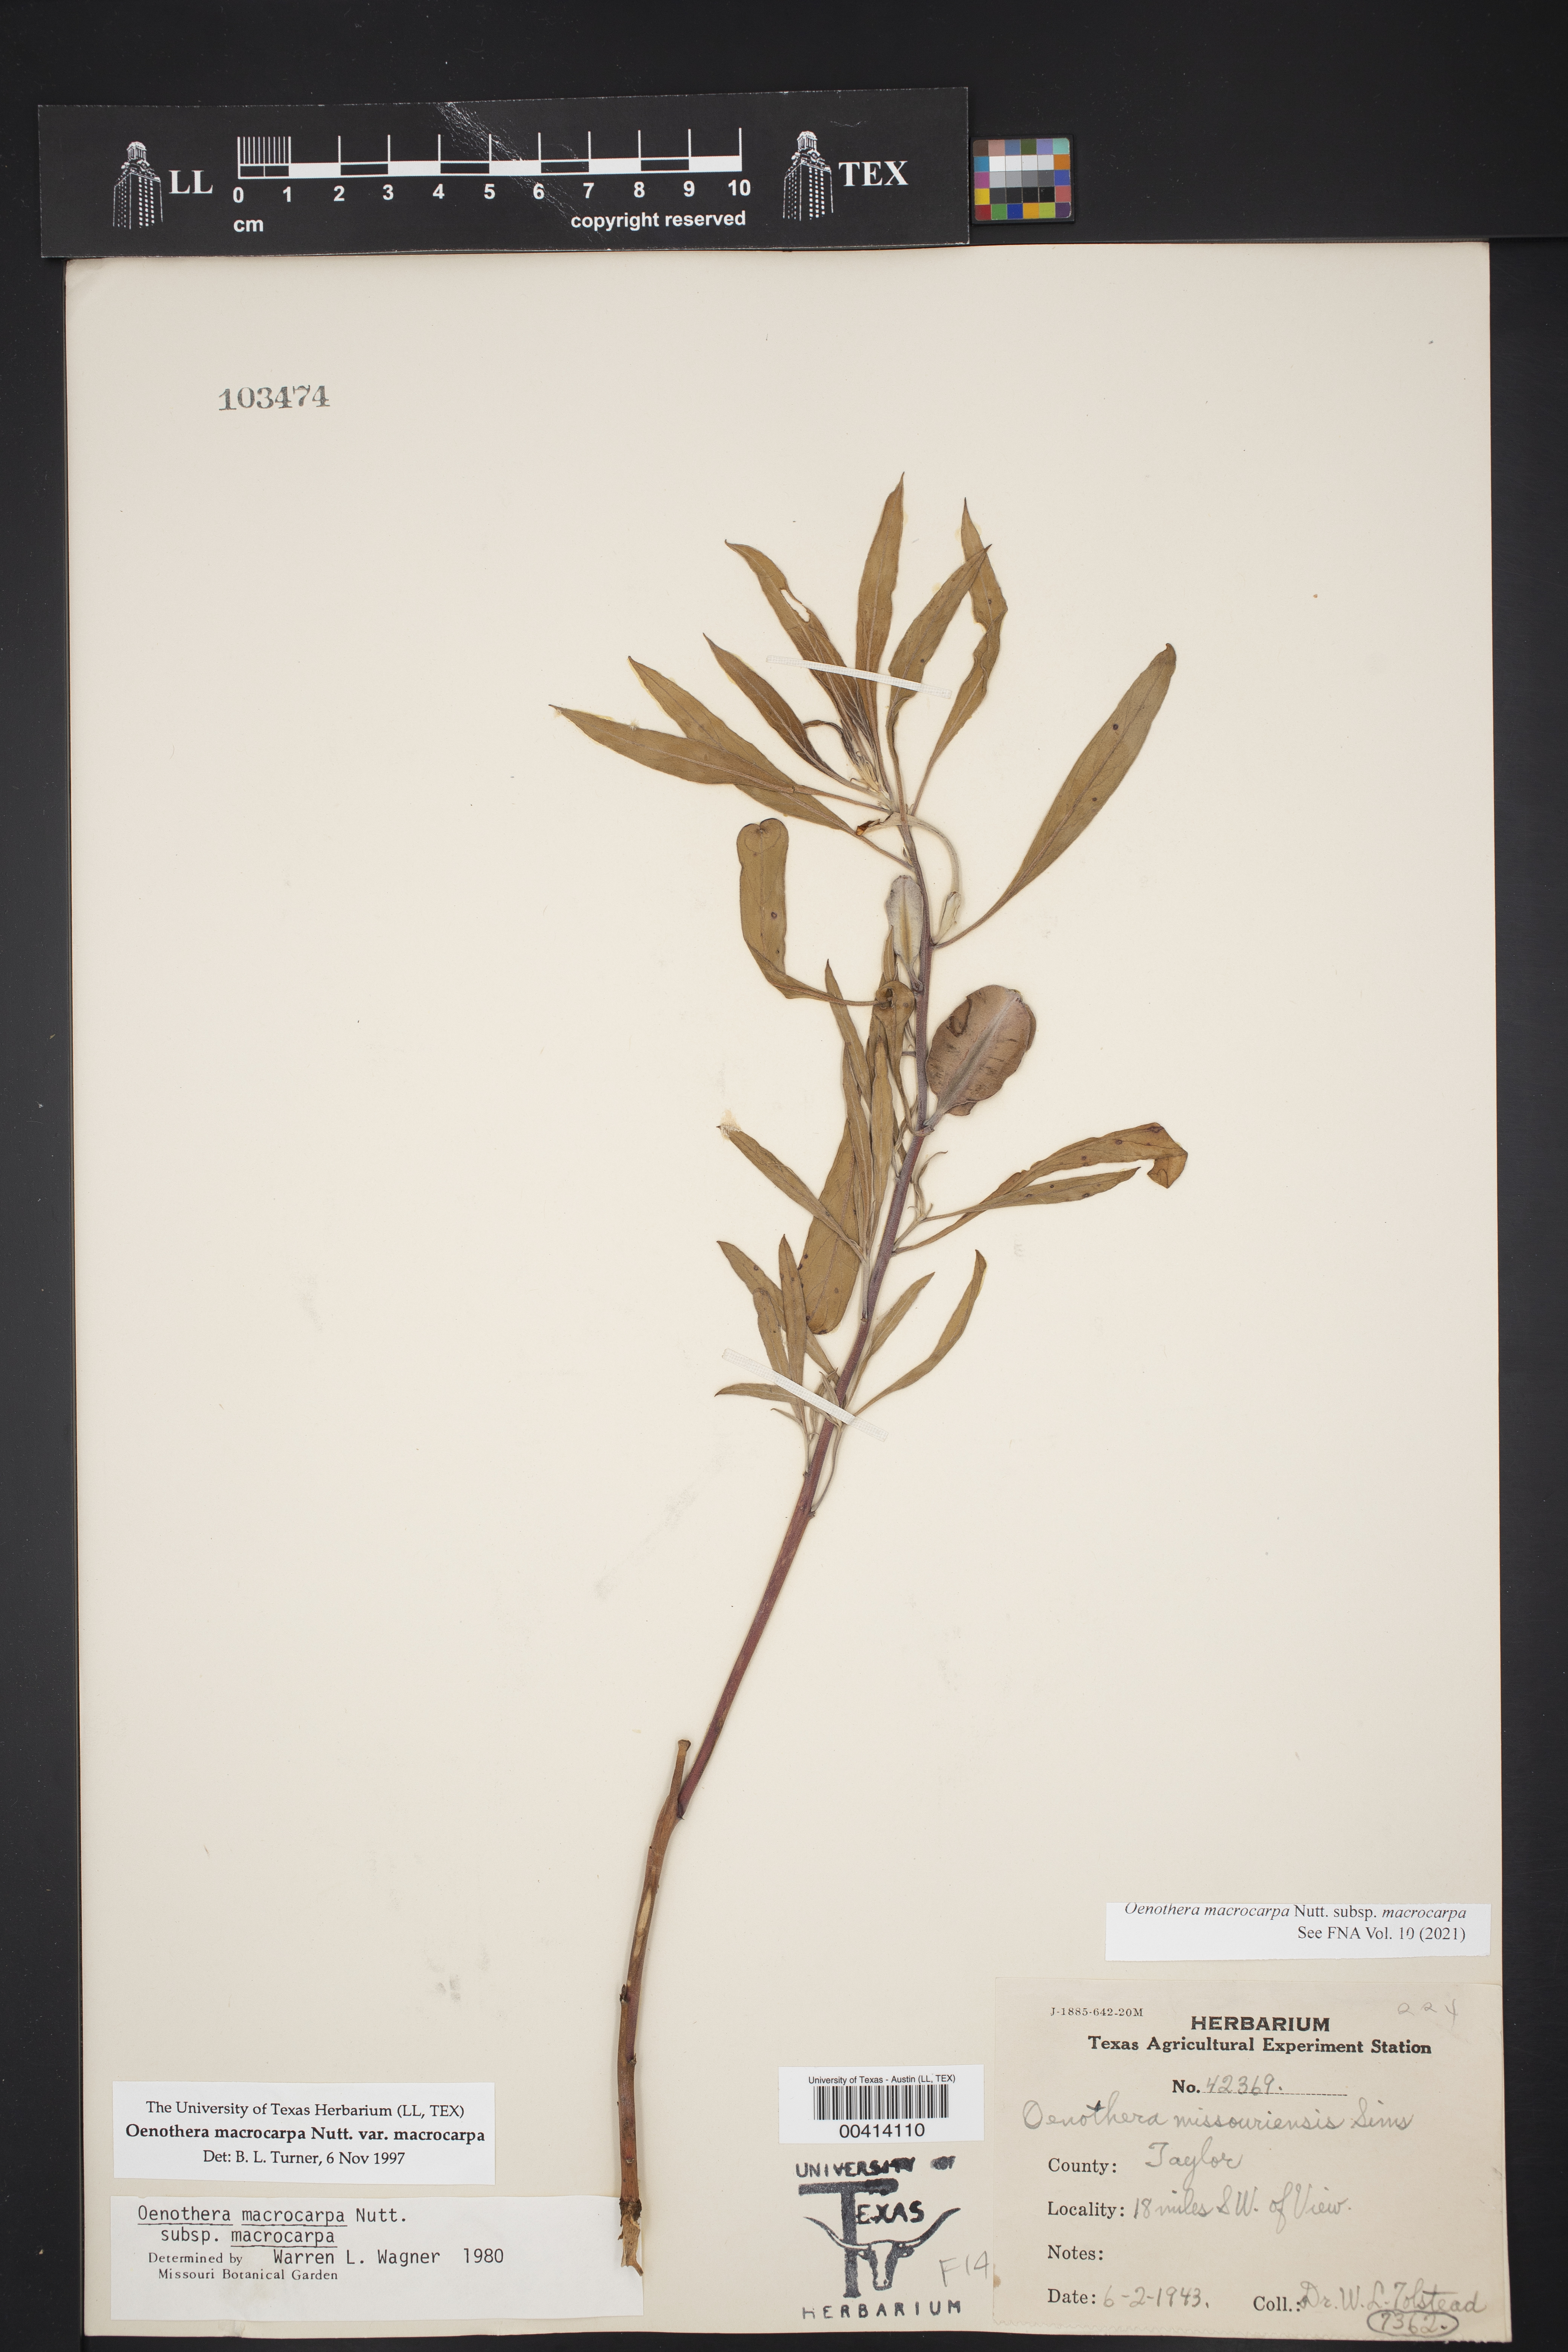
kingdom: Plantae
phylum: Tracheophyta
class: Magnoliopsida
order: Myrtales
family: Onagraceae
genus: Oenothera
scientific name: Oenothera macrocarpa
